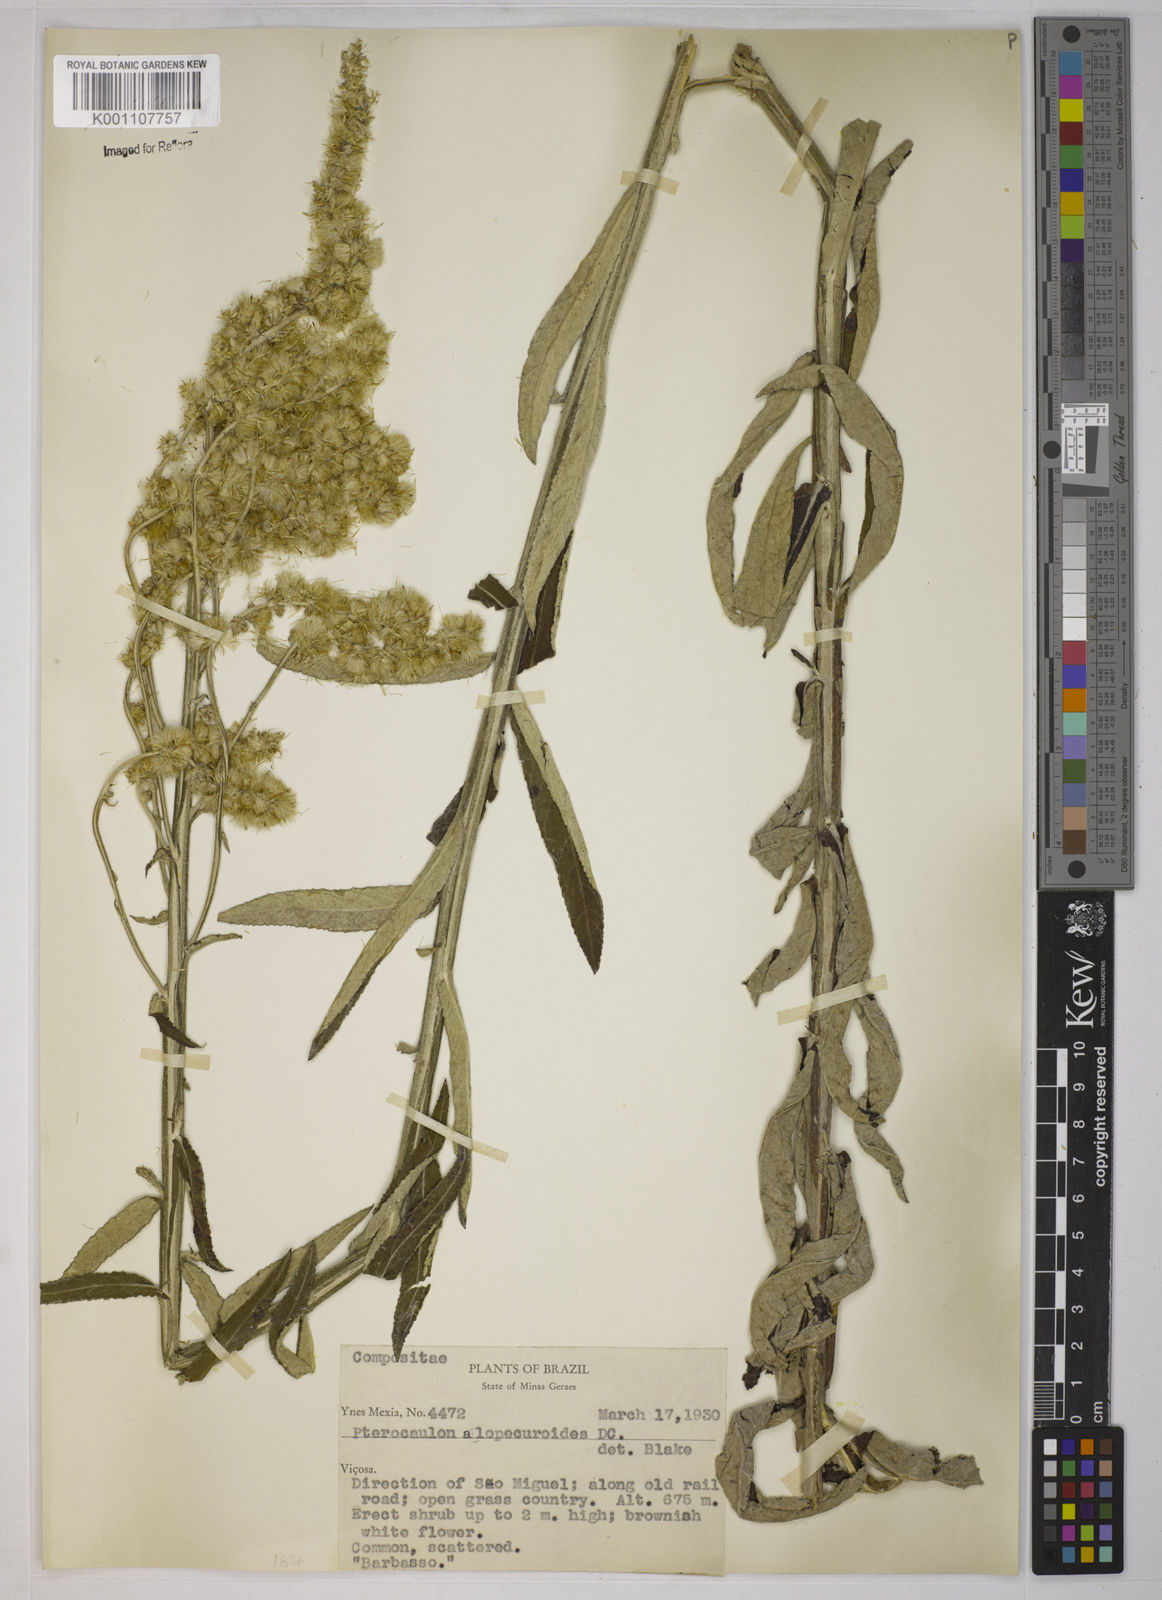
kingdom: Plantae
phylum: Tracheophyta
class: Magnoliopsida
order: Asterales
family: Asteraceae
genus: Pterocaulon
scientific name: Pterocaulon alopecuroides
